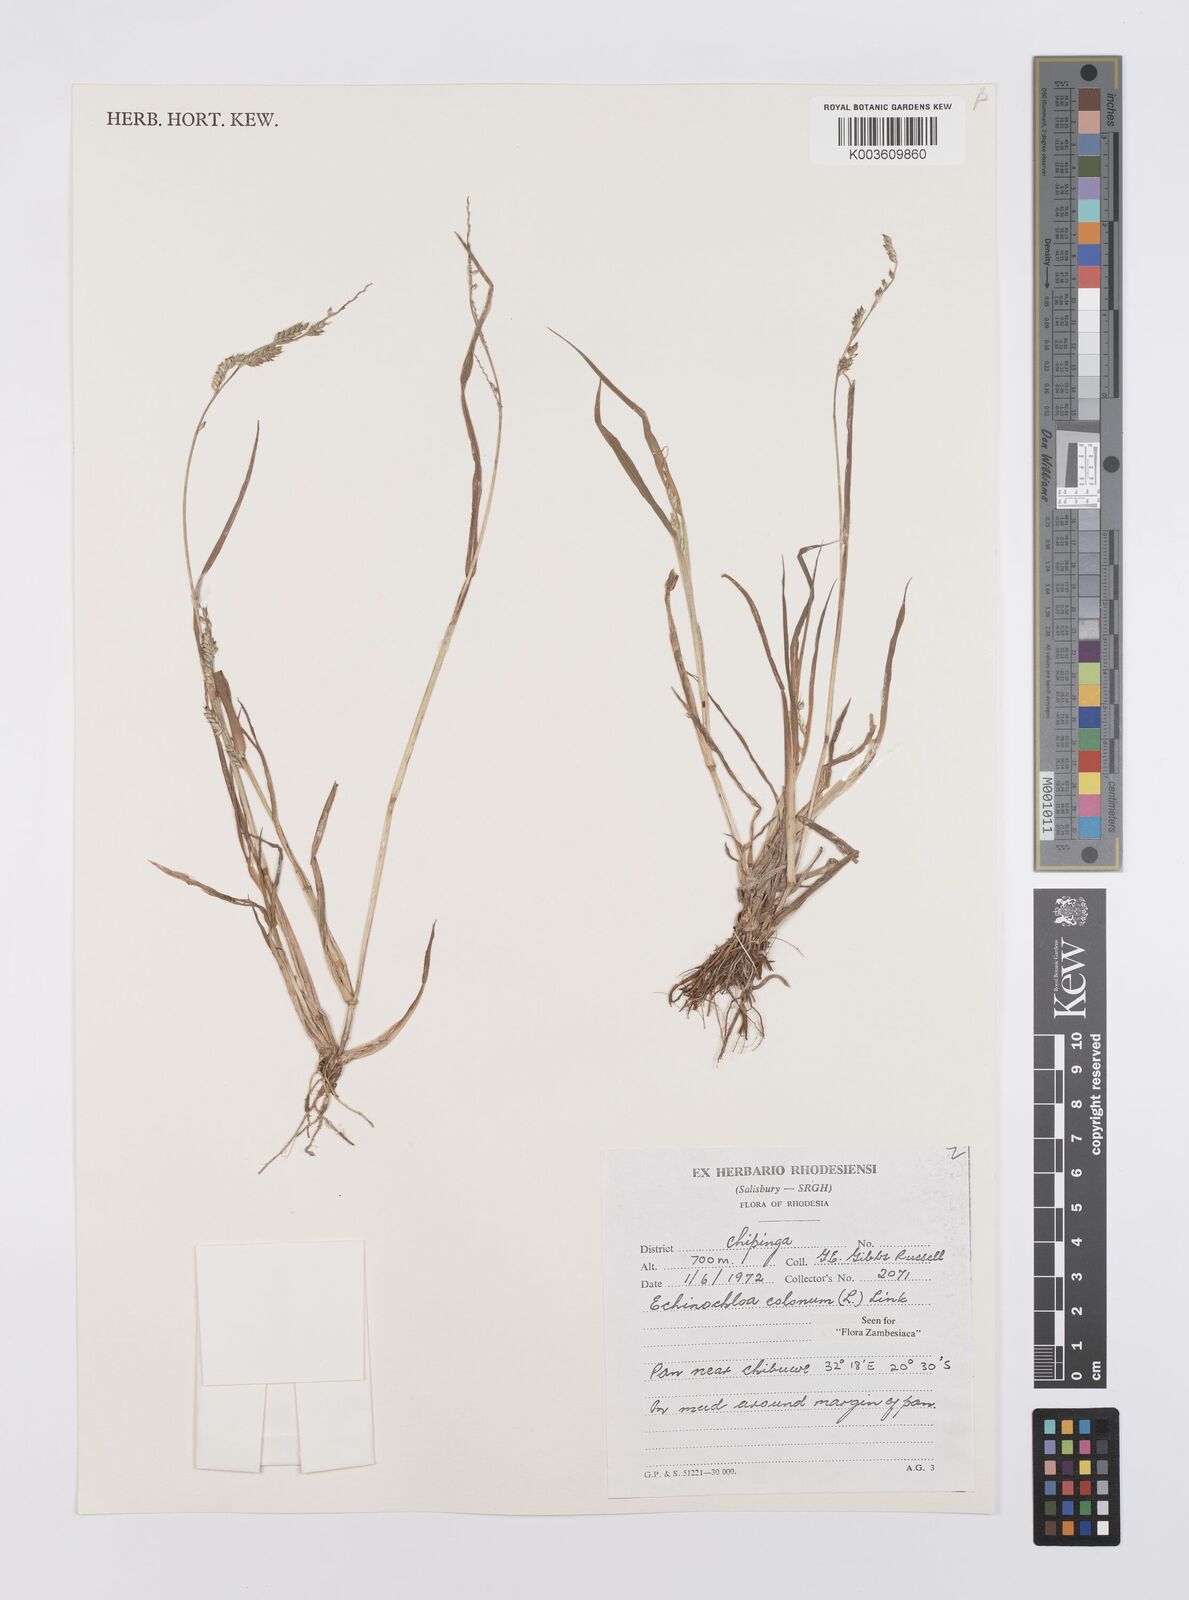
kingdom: Plantae
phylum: Tracheophyta
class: Liliopsida
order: Poales
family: Poaceae
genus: Echinochloa
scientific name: Echinochloa colonum
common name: Jungle rice
